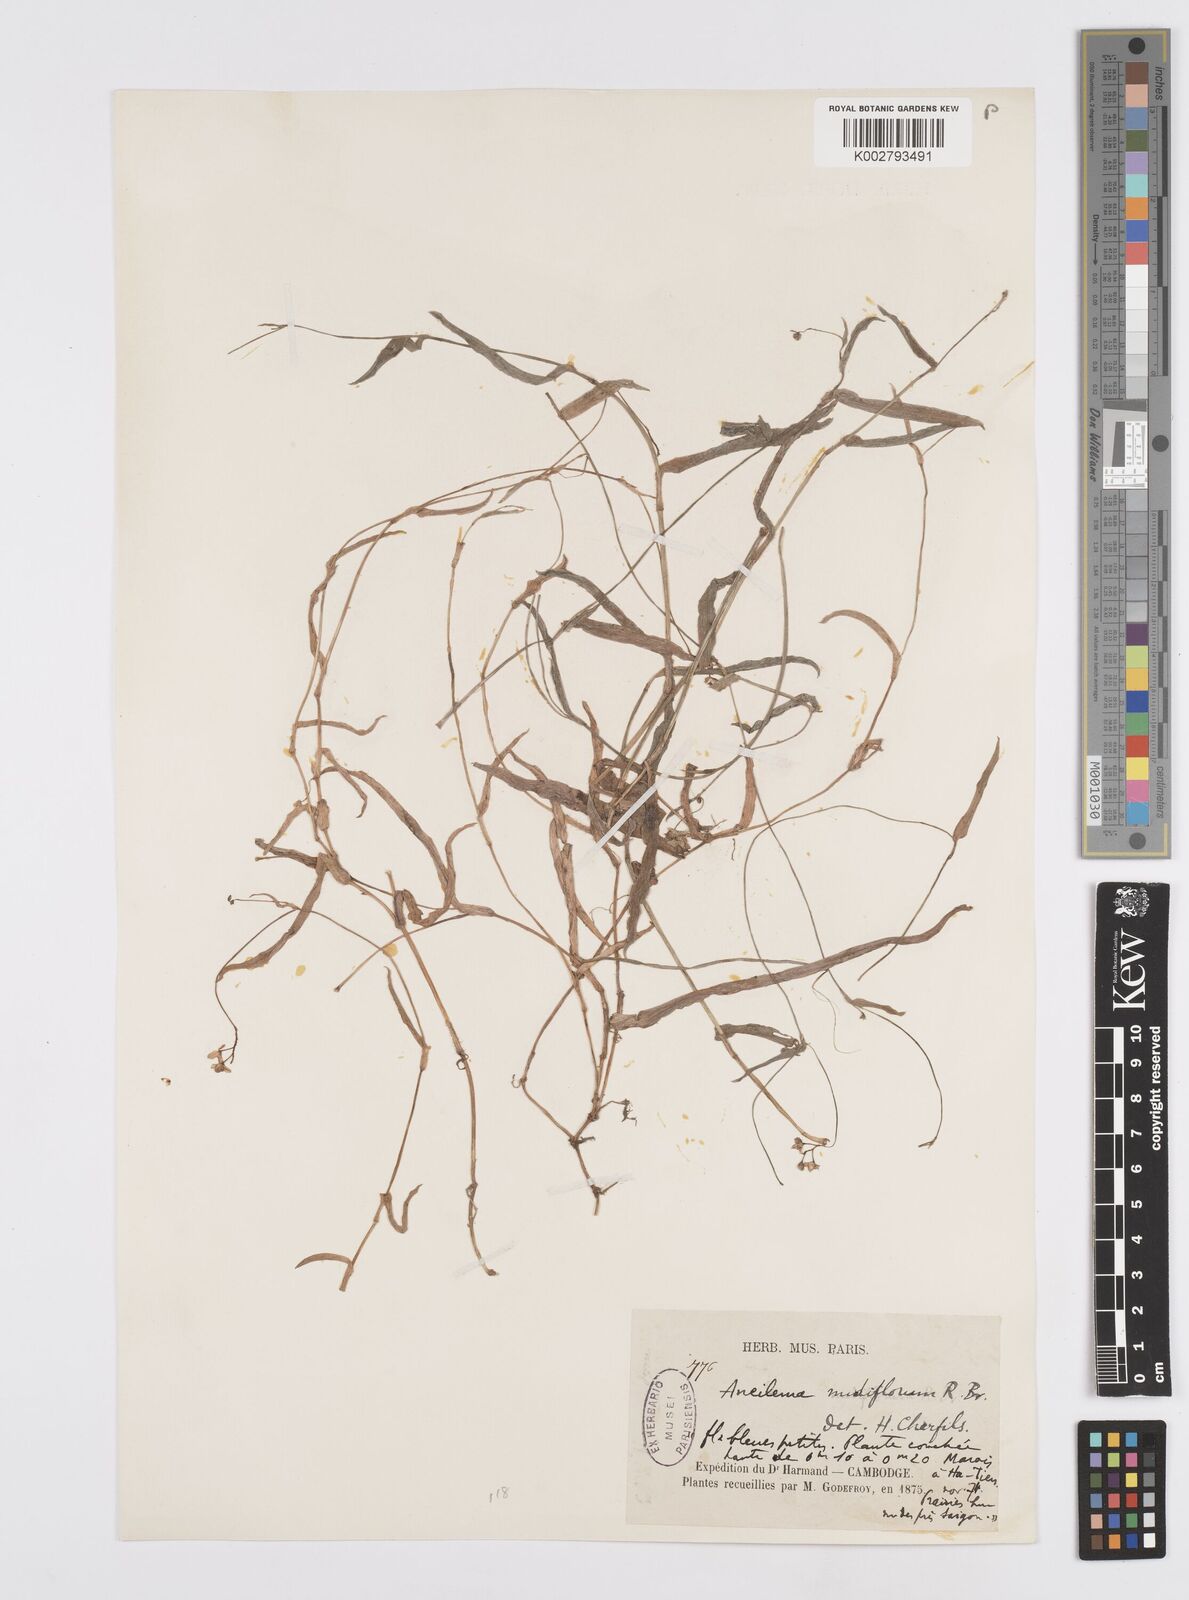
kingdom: Plantae
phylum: Tracheophyta
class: Liliopsida
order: Commelinales
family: Commelinaceae
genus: Murdannia
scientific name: Murdannia nudiflora
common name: Nakedstem dewflower
